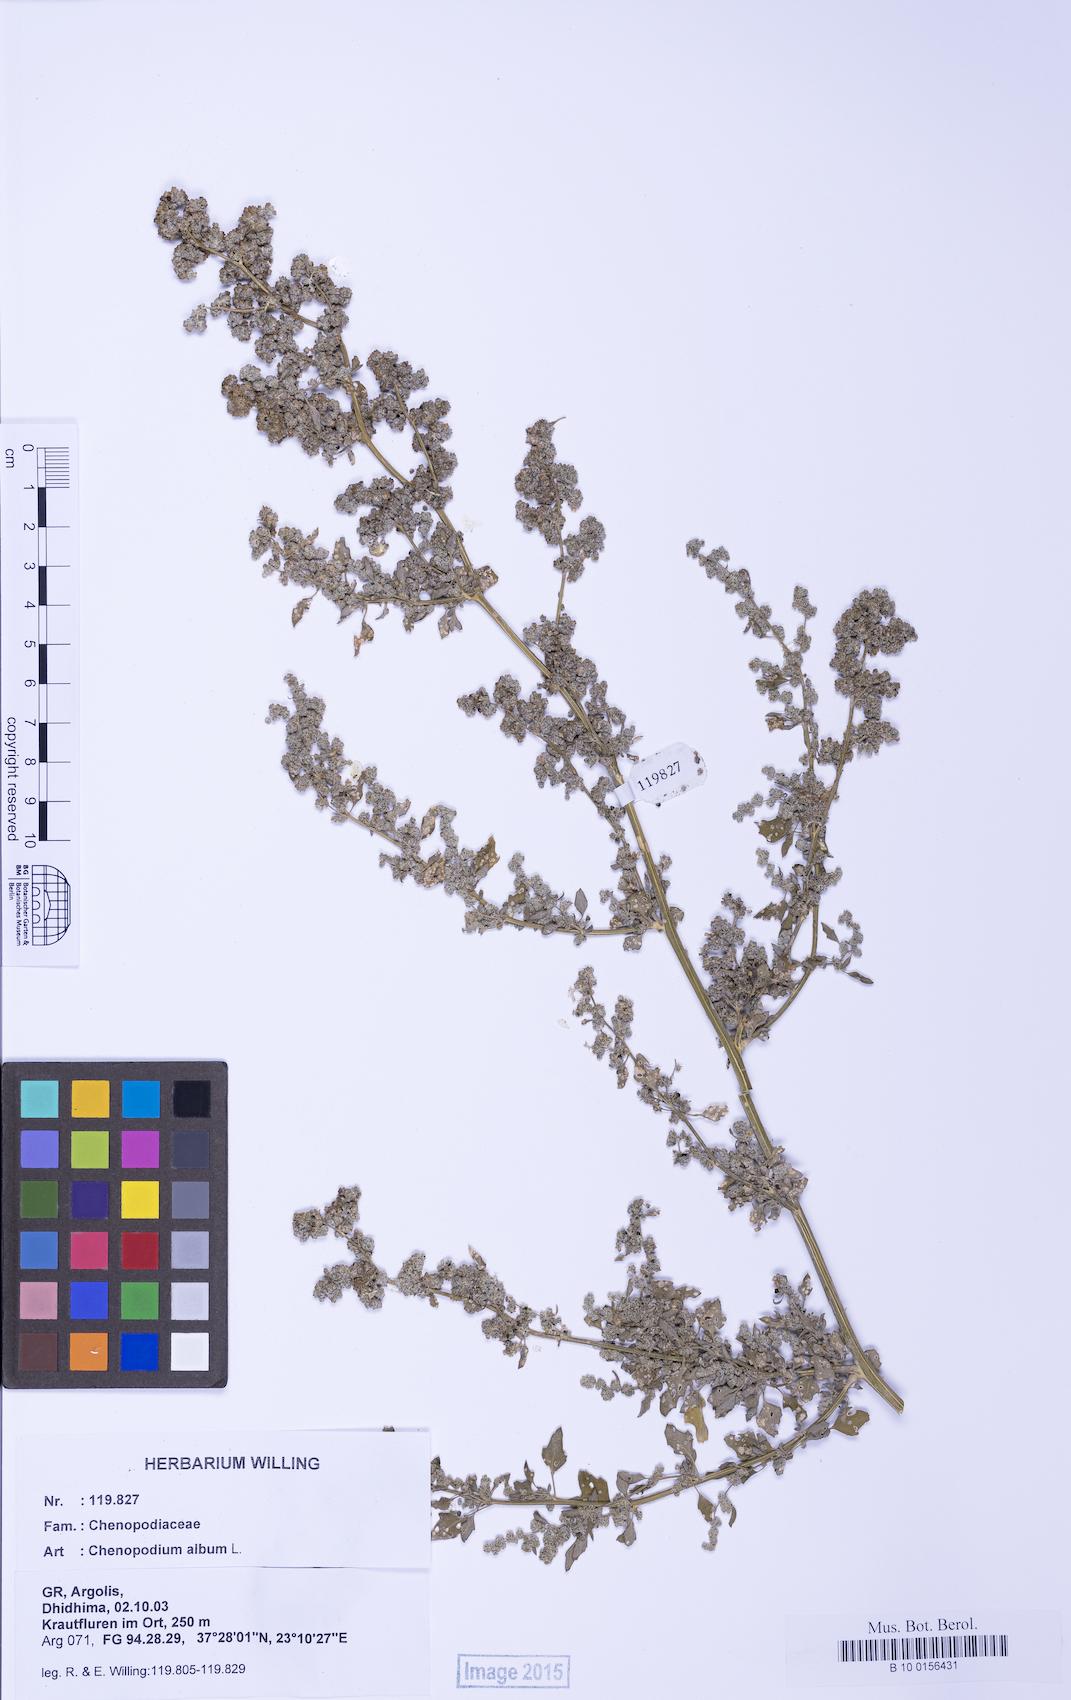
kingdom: Plantae
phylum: Tracheophyta
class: Magnoliopsida
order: Caryophyllales
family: Amaranthaceae
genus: Chenopodium
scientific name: Chenopodium album
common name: Fat-hen
